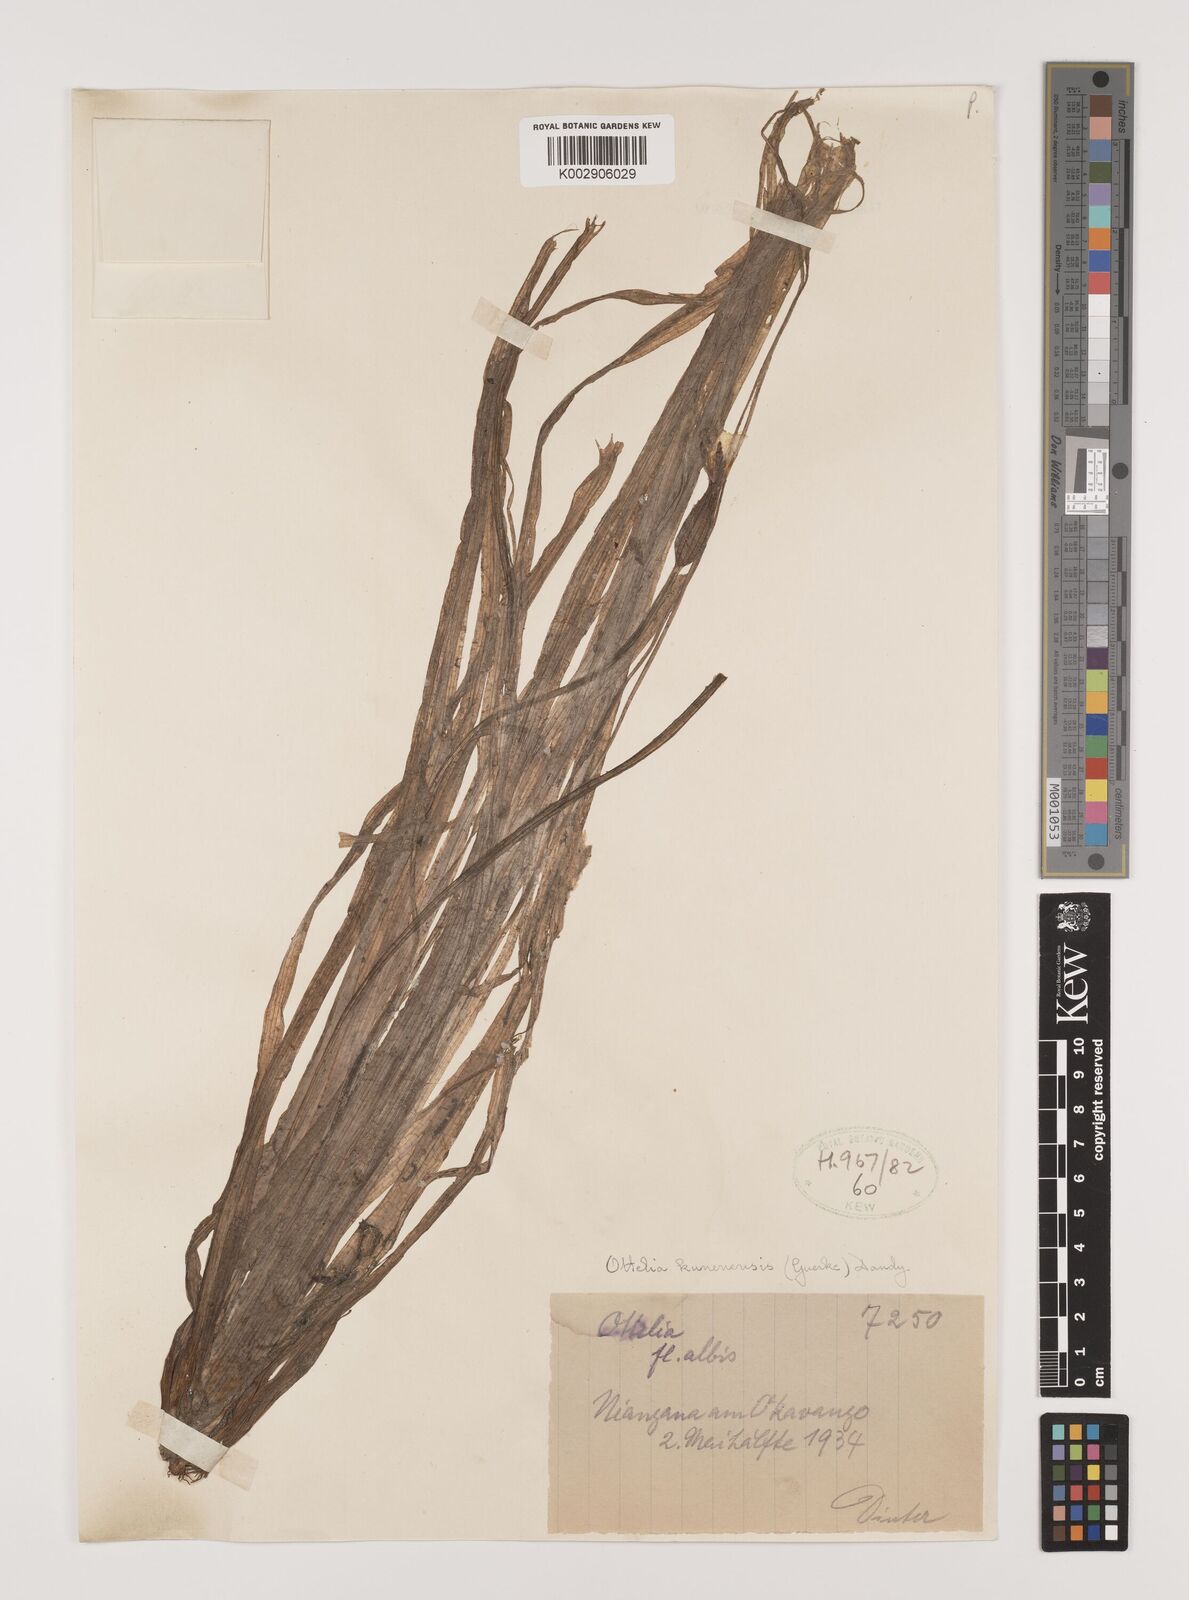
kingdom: Plantae
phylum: Tracheophyta
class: Liliopsida
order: Alismatales
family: Hydrocharitaceae
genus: Ottelia
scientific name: Ottelia kunenensis
